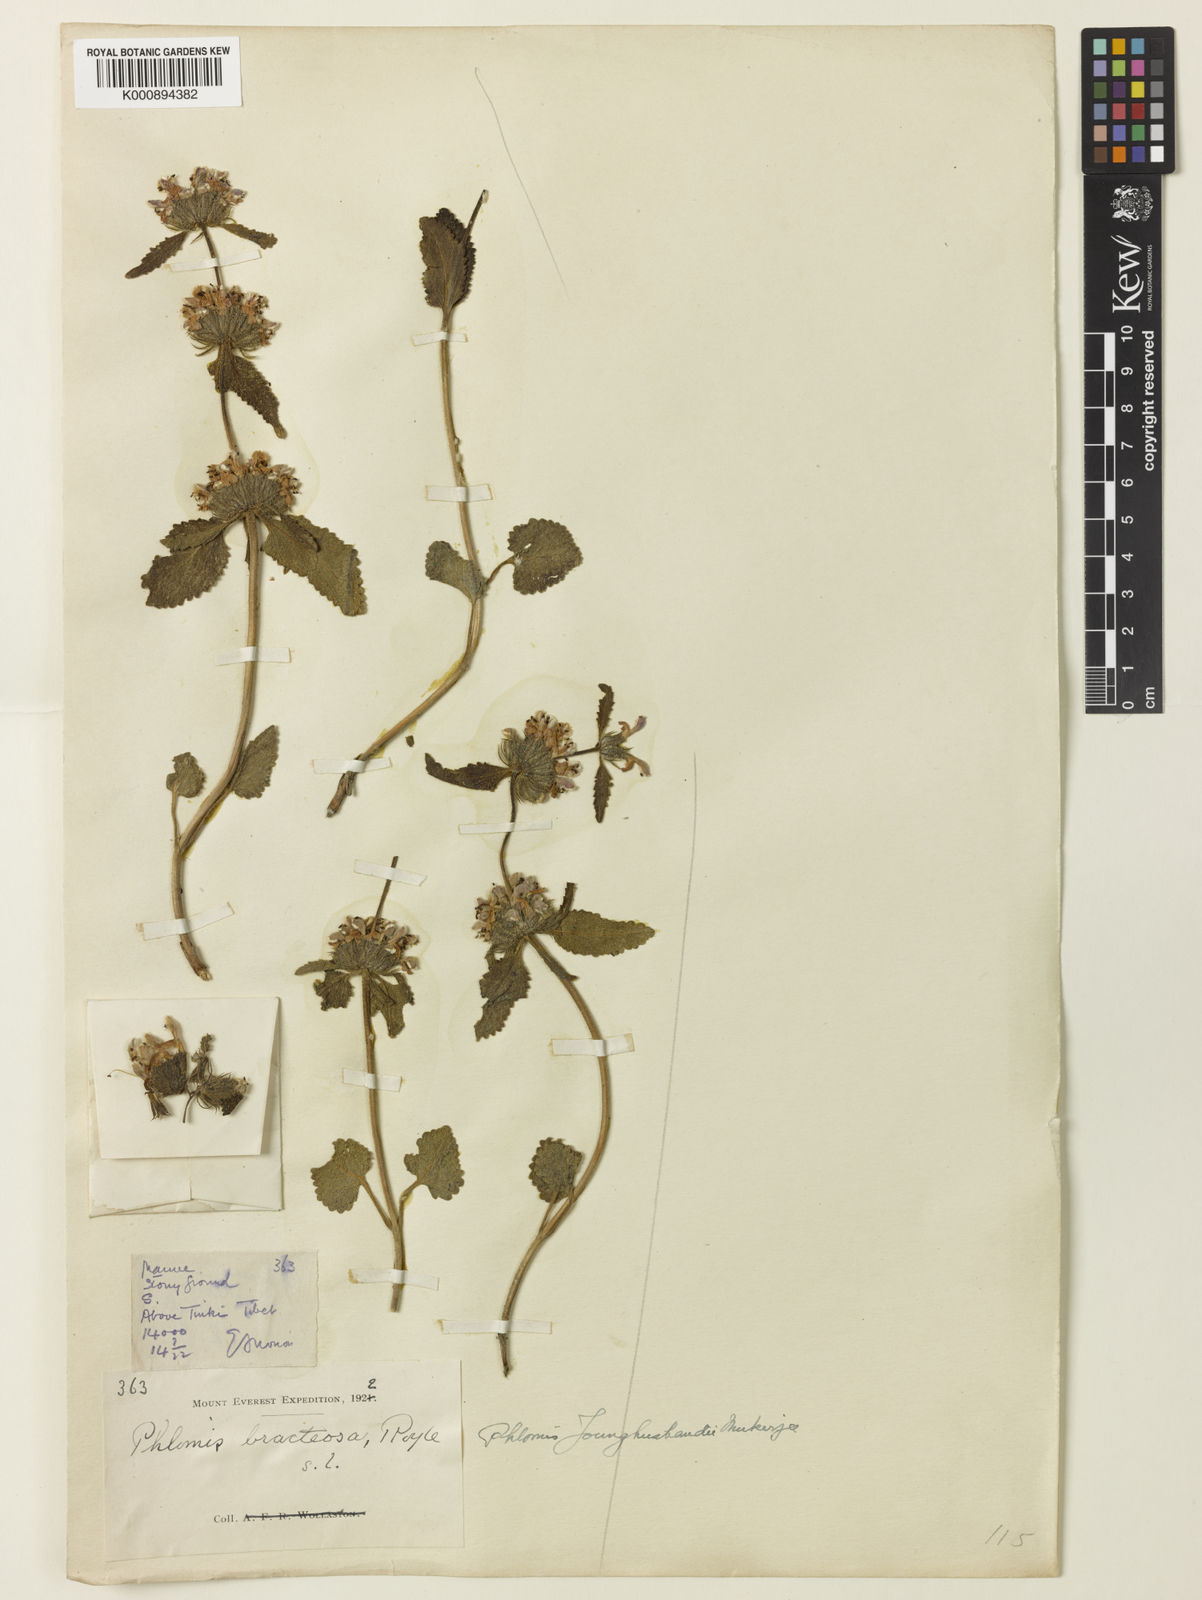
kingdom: Plantae
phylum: Tracheophyta
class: Magnoliopsida
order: Lamiales
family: Lamiaceae
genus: Phlomis
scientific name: Phlomis
